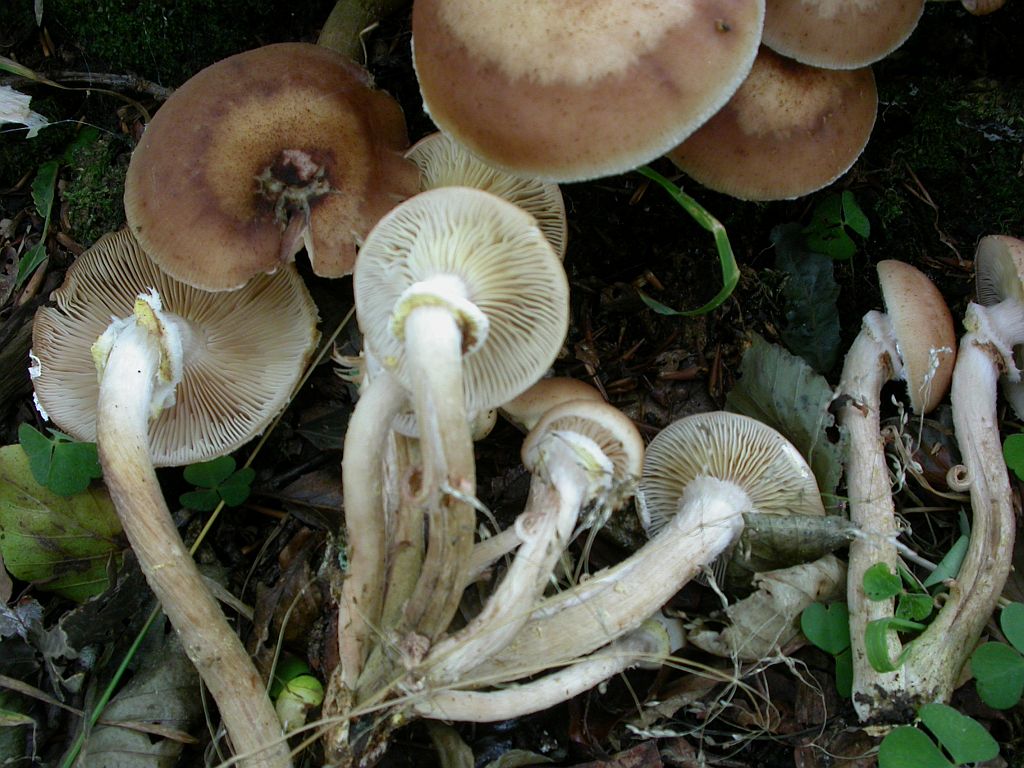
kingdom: Fungi
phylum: Basidiomycota
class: Agaricomycetes
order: Agaricales
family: Physalacriaceae
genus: Armillaria
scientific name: Armillaria lutea
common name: køllestokket honningsvamp
